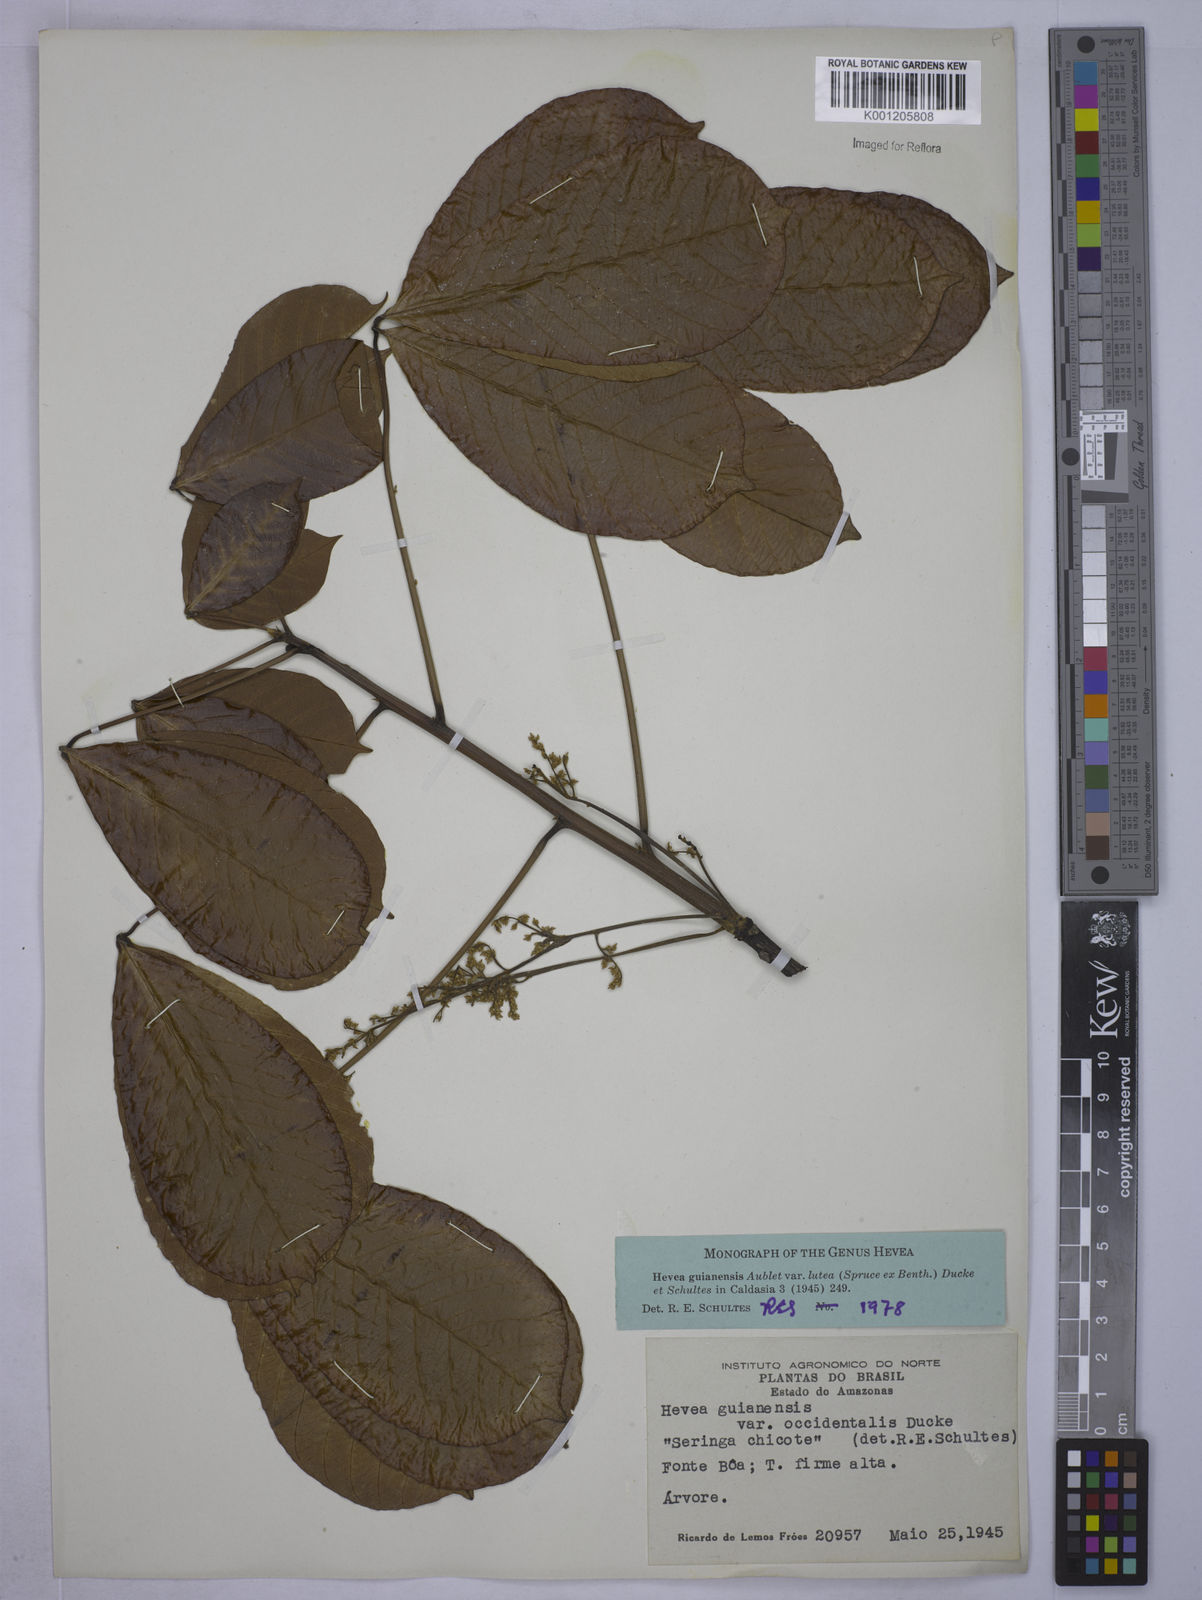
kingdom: Plantae
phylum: Tracheophyta
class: Magnoliopsida
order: Malpighiales
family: Euphorbiaceae
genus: Hevea
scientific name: Hevea guianensis
